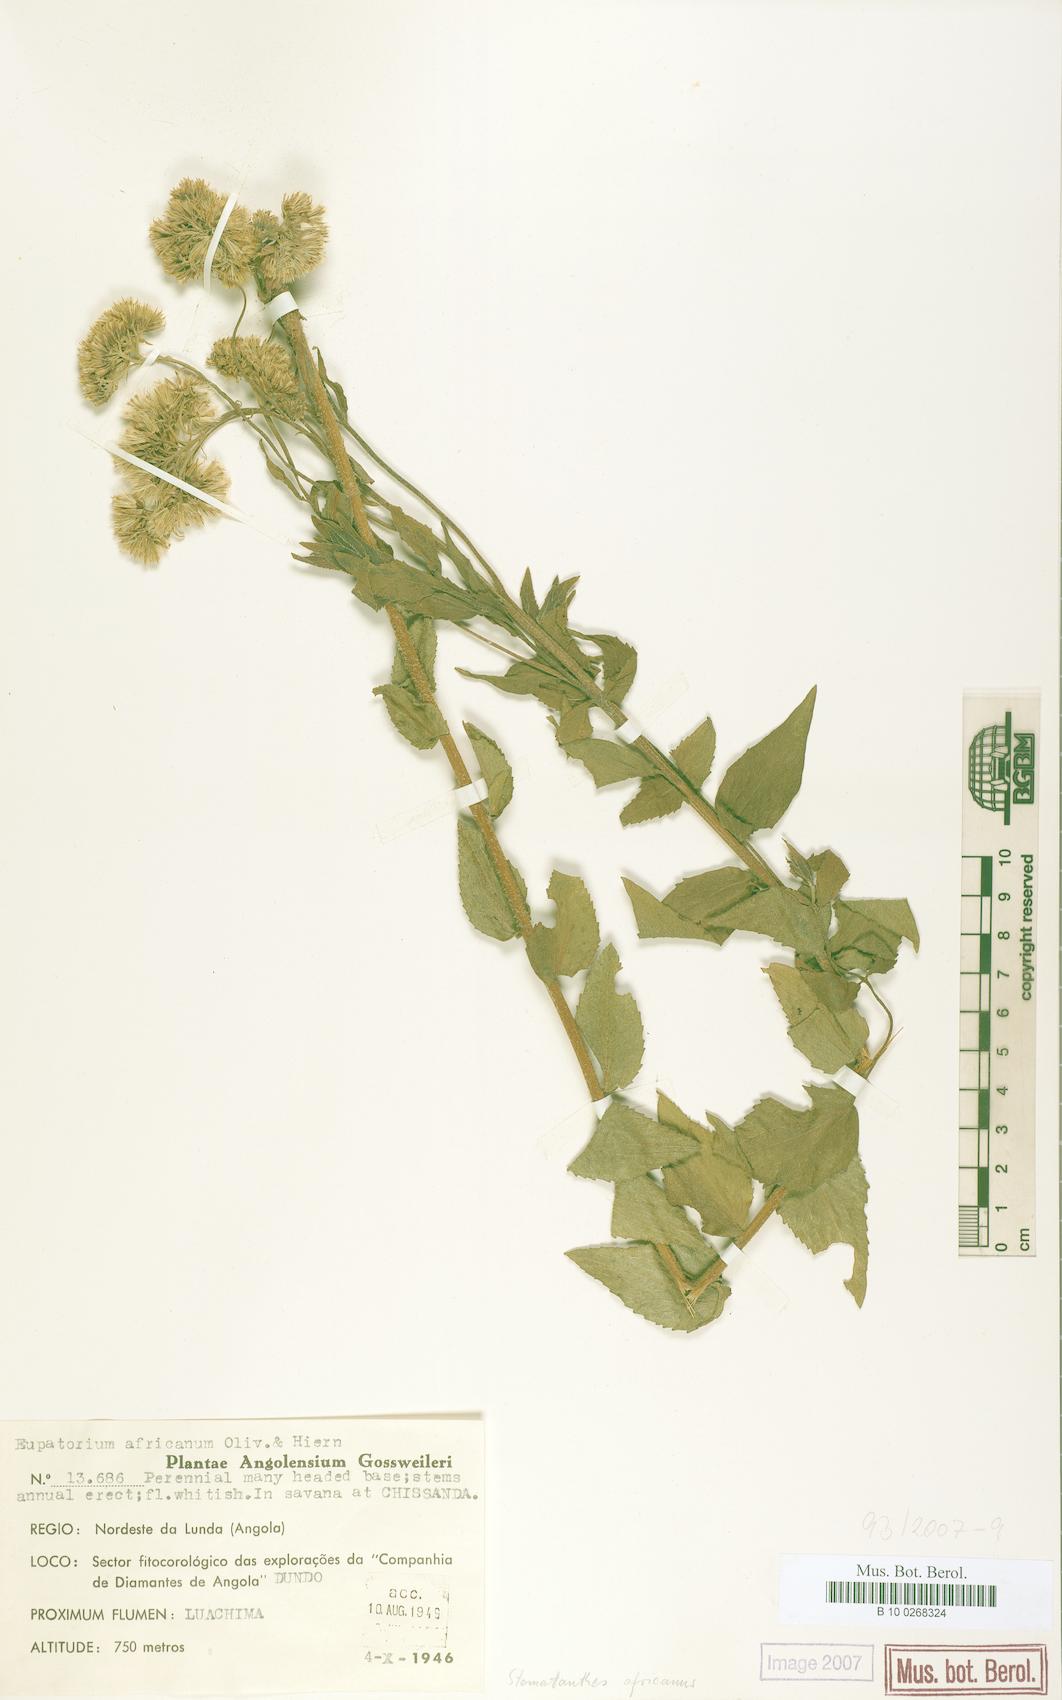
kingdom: Plantae
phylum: Tracheophyta
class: Magnoliopsida
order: Asterales
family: Asteraceae
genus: Stomatanthes
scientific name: Stomatanthes africanus
